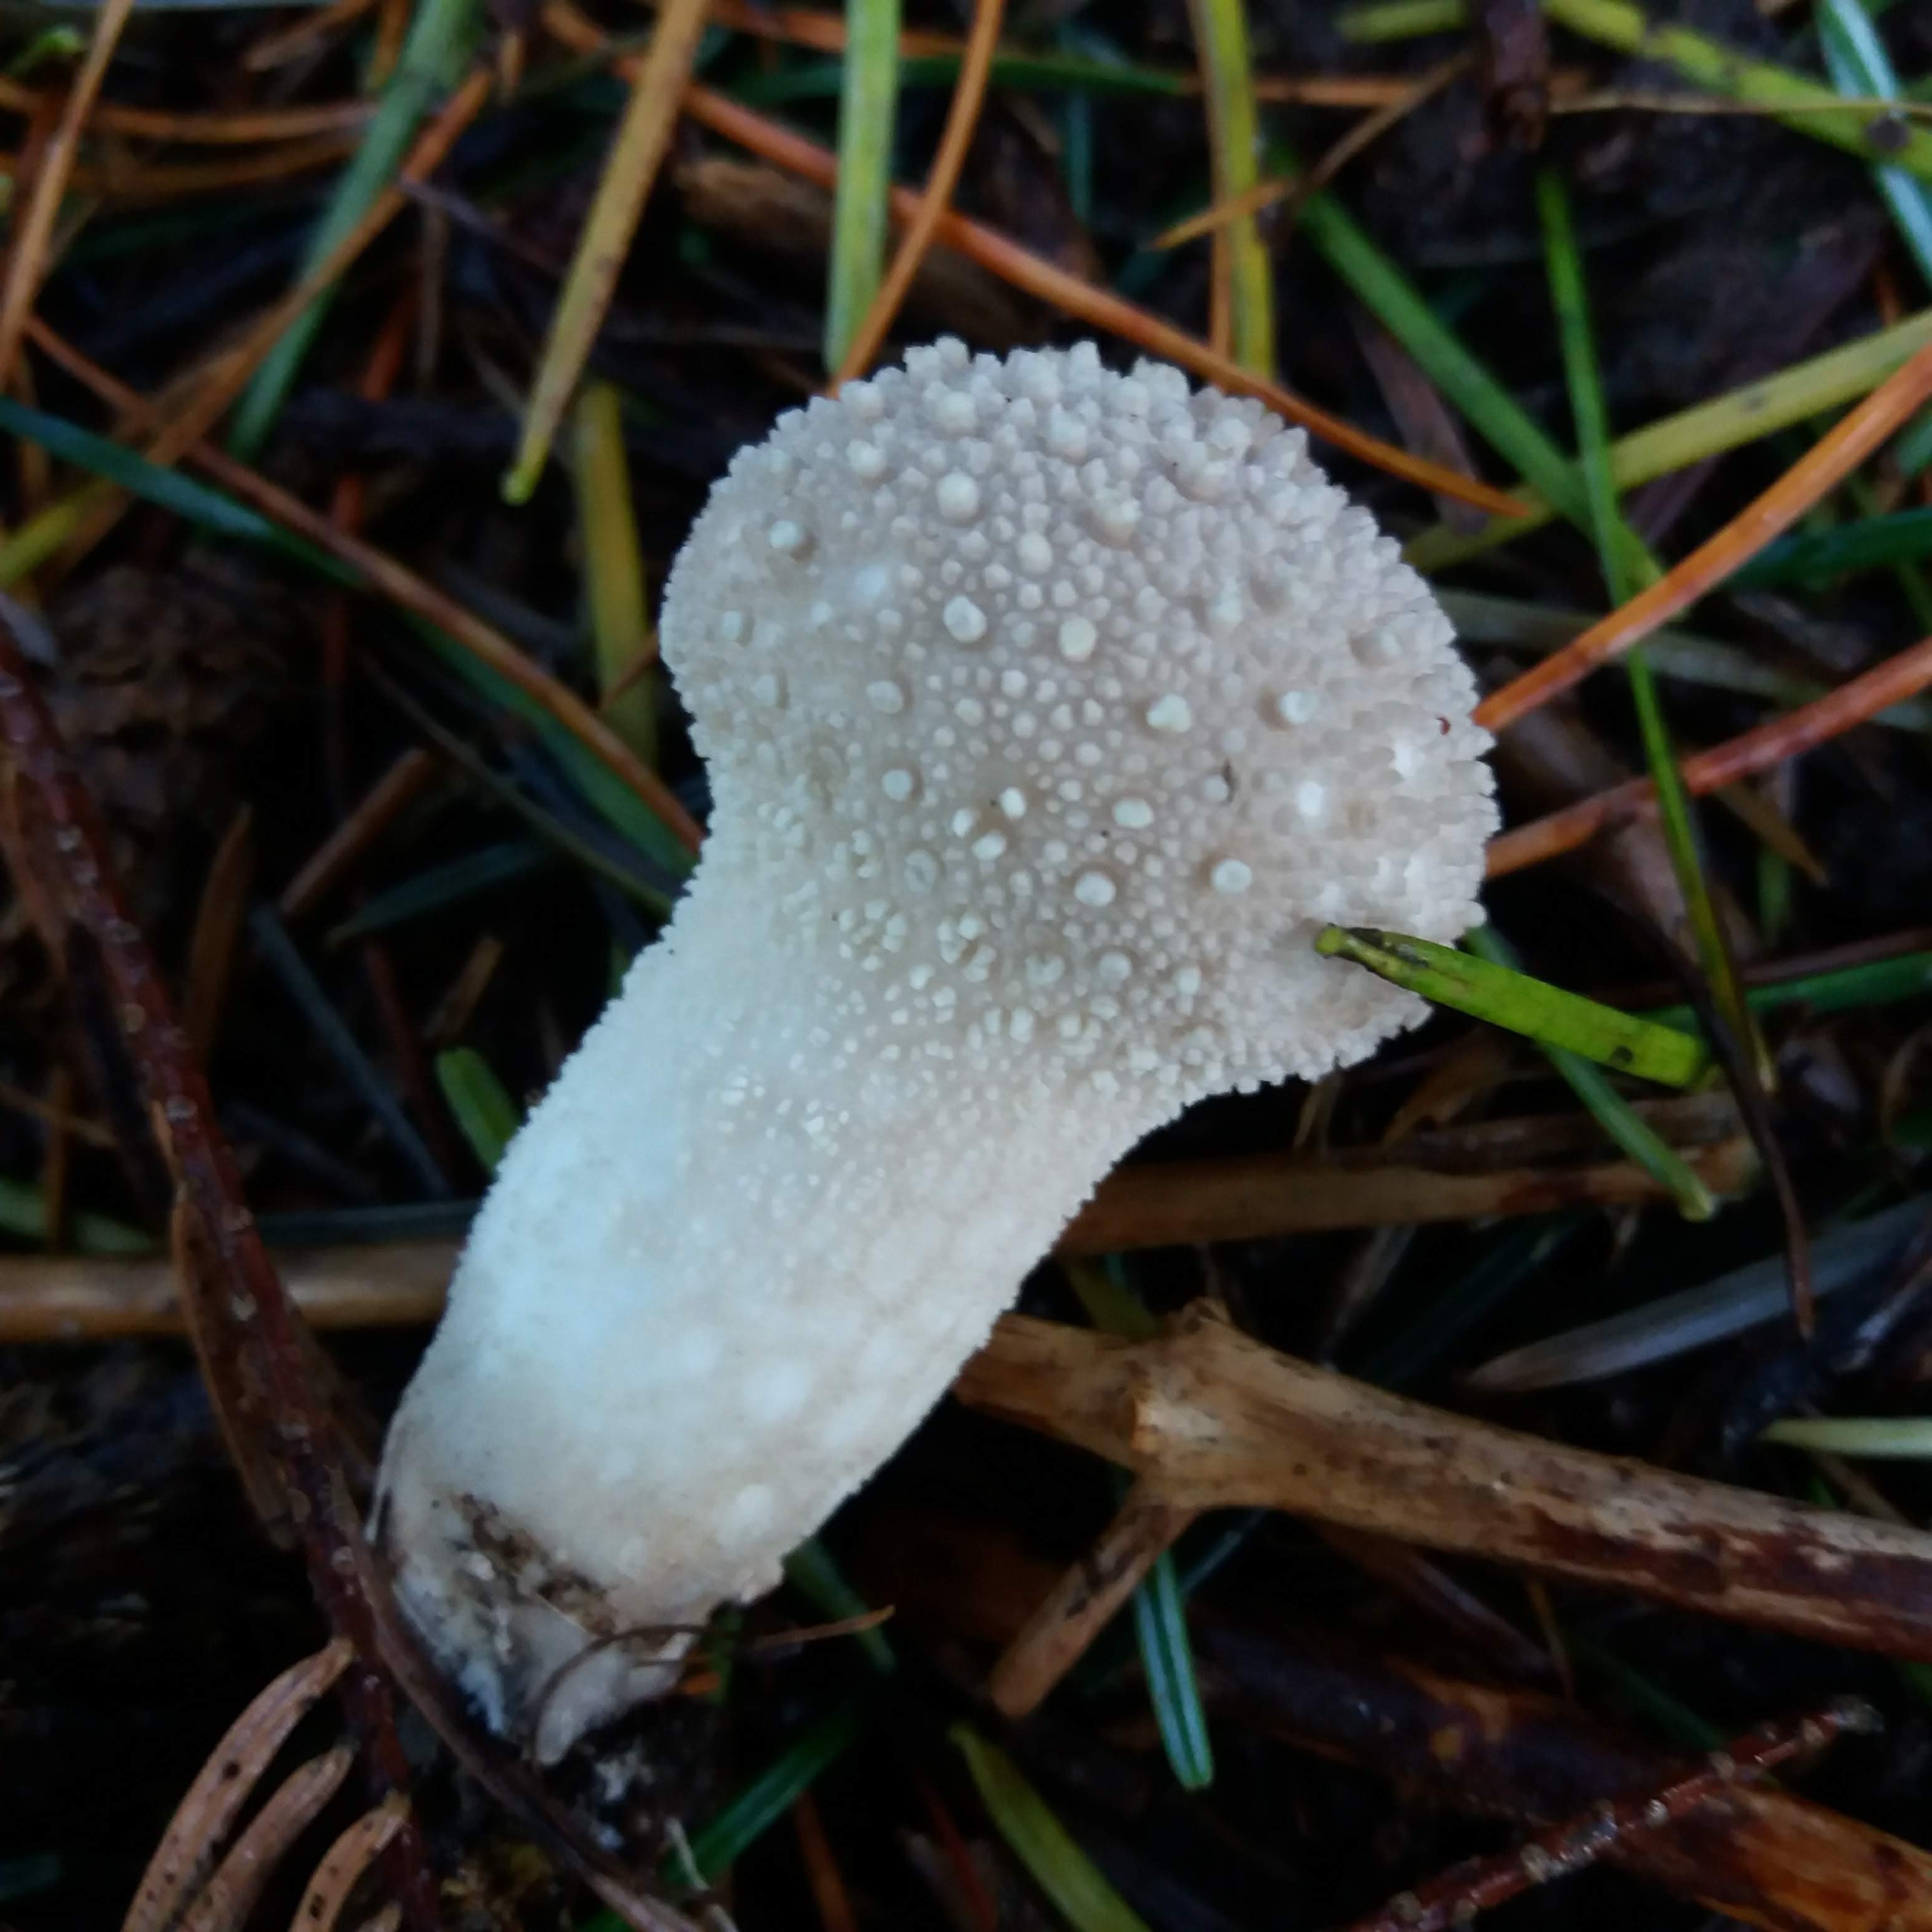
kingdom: Fungi
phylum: Basidiomycota
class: Agaricomycetes
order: Agaricales
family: Lycoperdaceae
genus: Lycoperdon
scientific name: Lycoperdon perlatum
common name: krystal-støvbold
